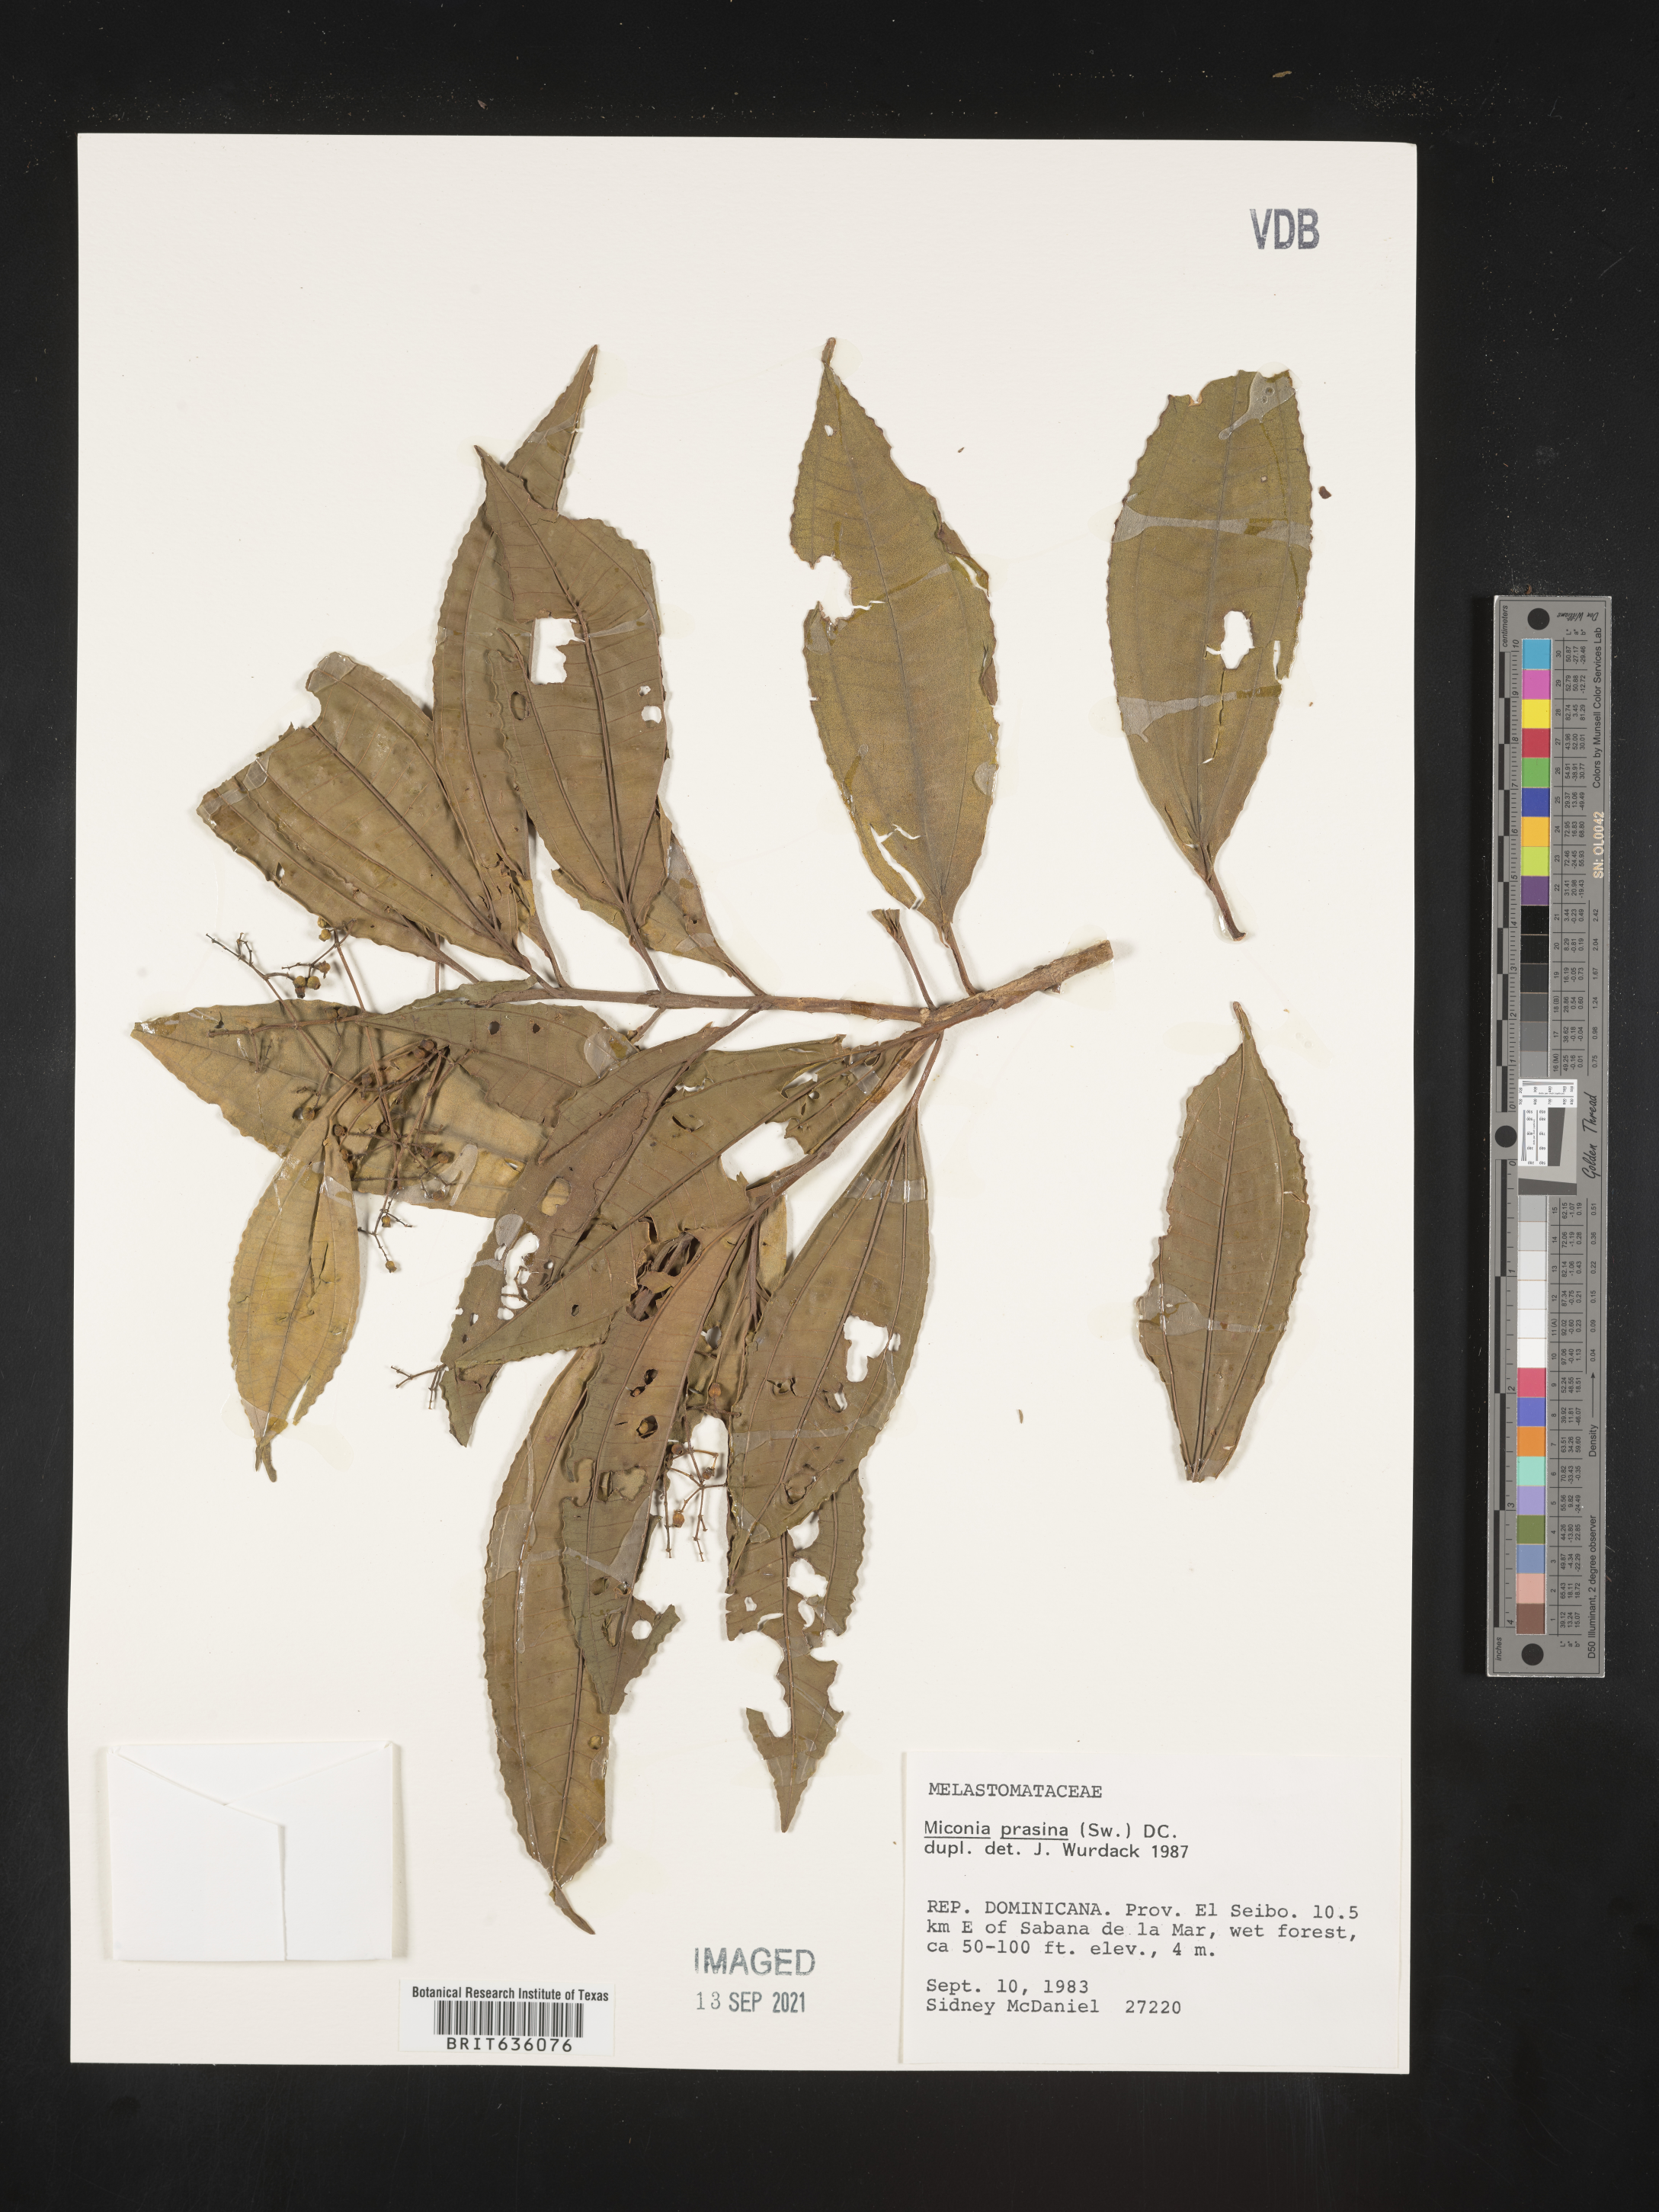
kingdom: Plantae
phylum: Tracheophyta
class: Magnoliopsida
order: Myrtales
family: Melastomataceae
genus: Miconia
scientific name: Miconia
